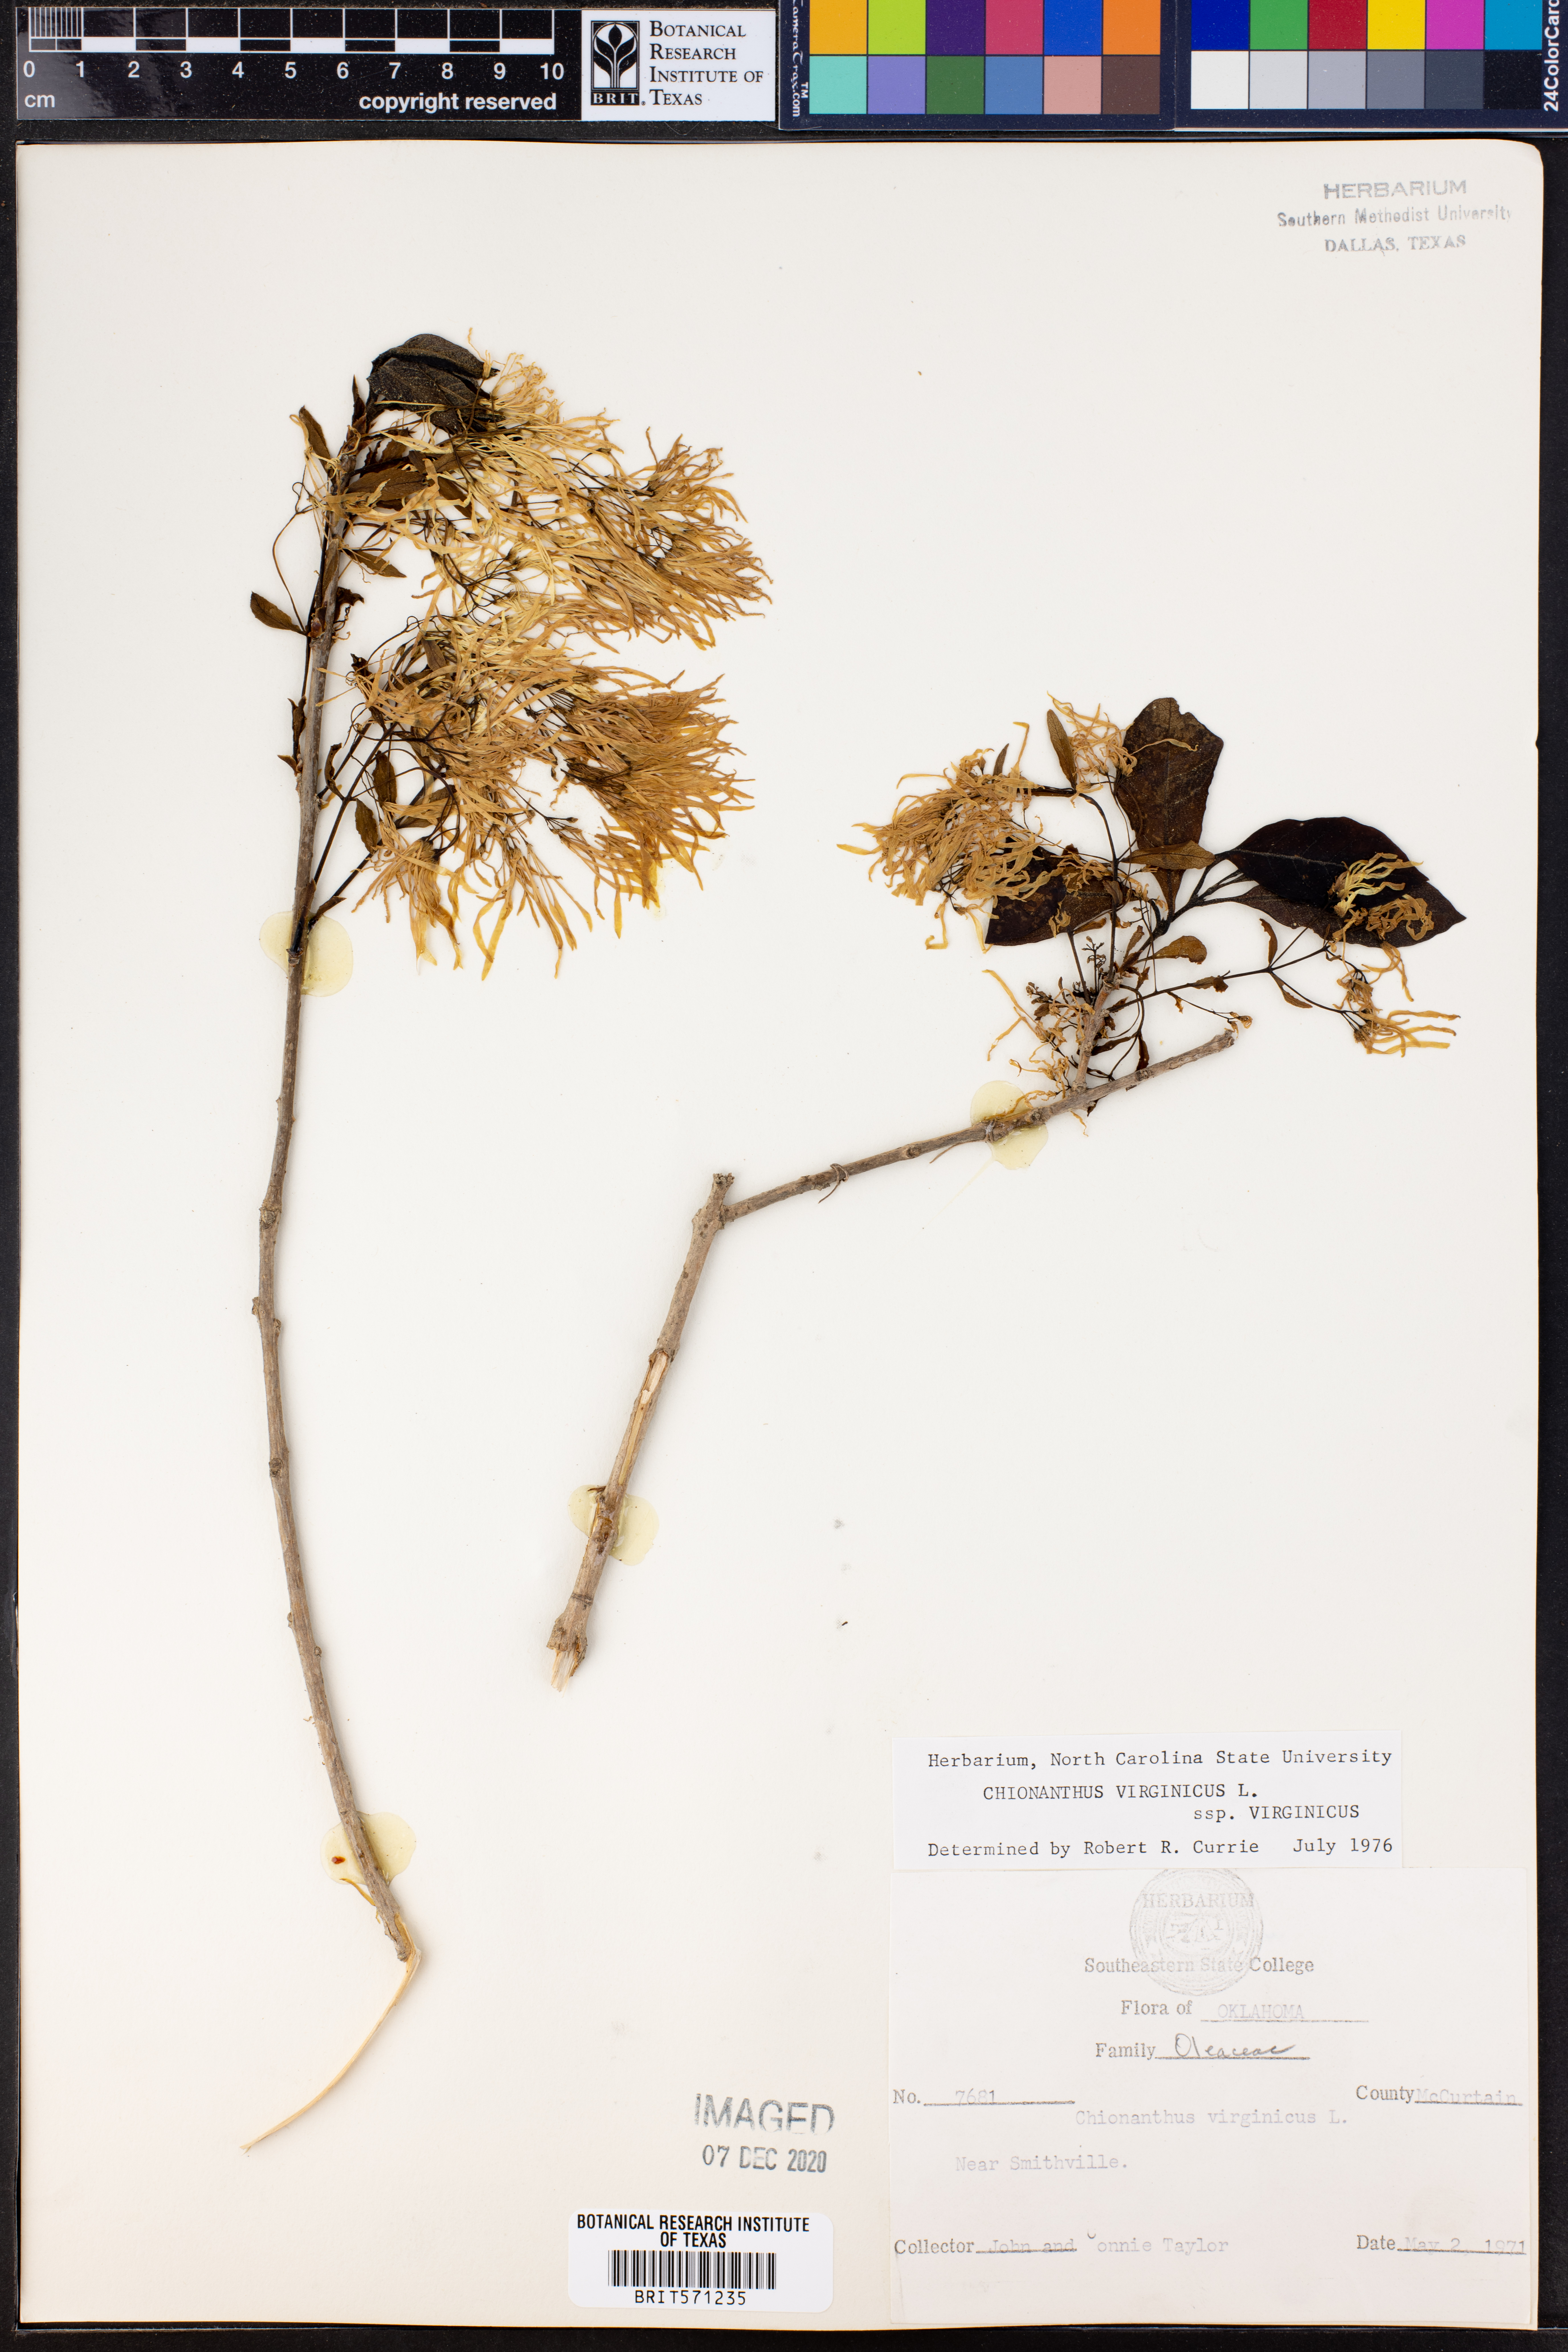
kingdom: Plantae
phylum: Tracheophyta
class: Magnoliopsida
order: Lamiales
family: Oleaceae
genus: Chionanthus
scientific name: Chionanthus virginicus
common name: American fringetree
